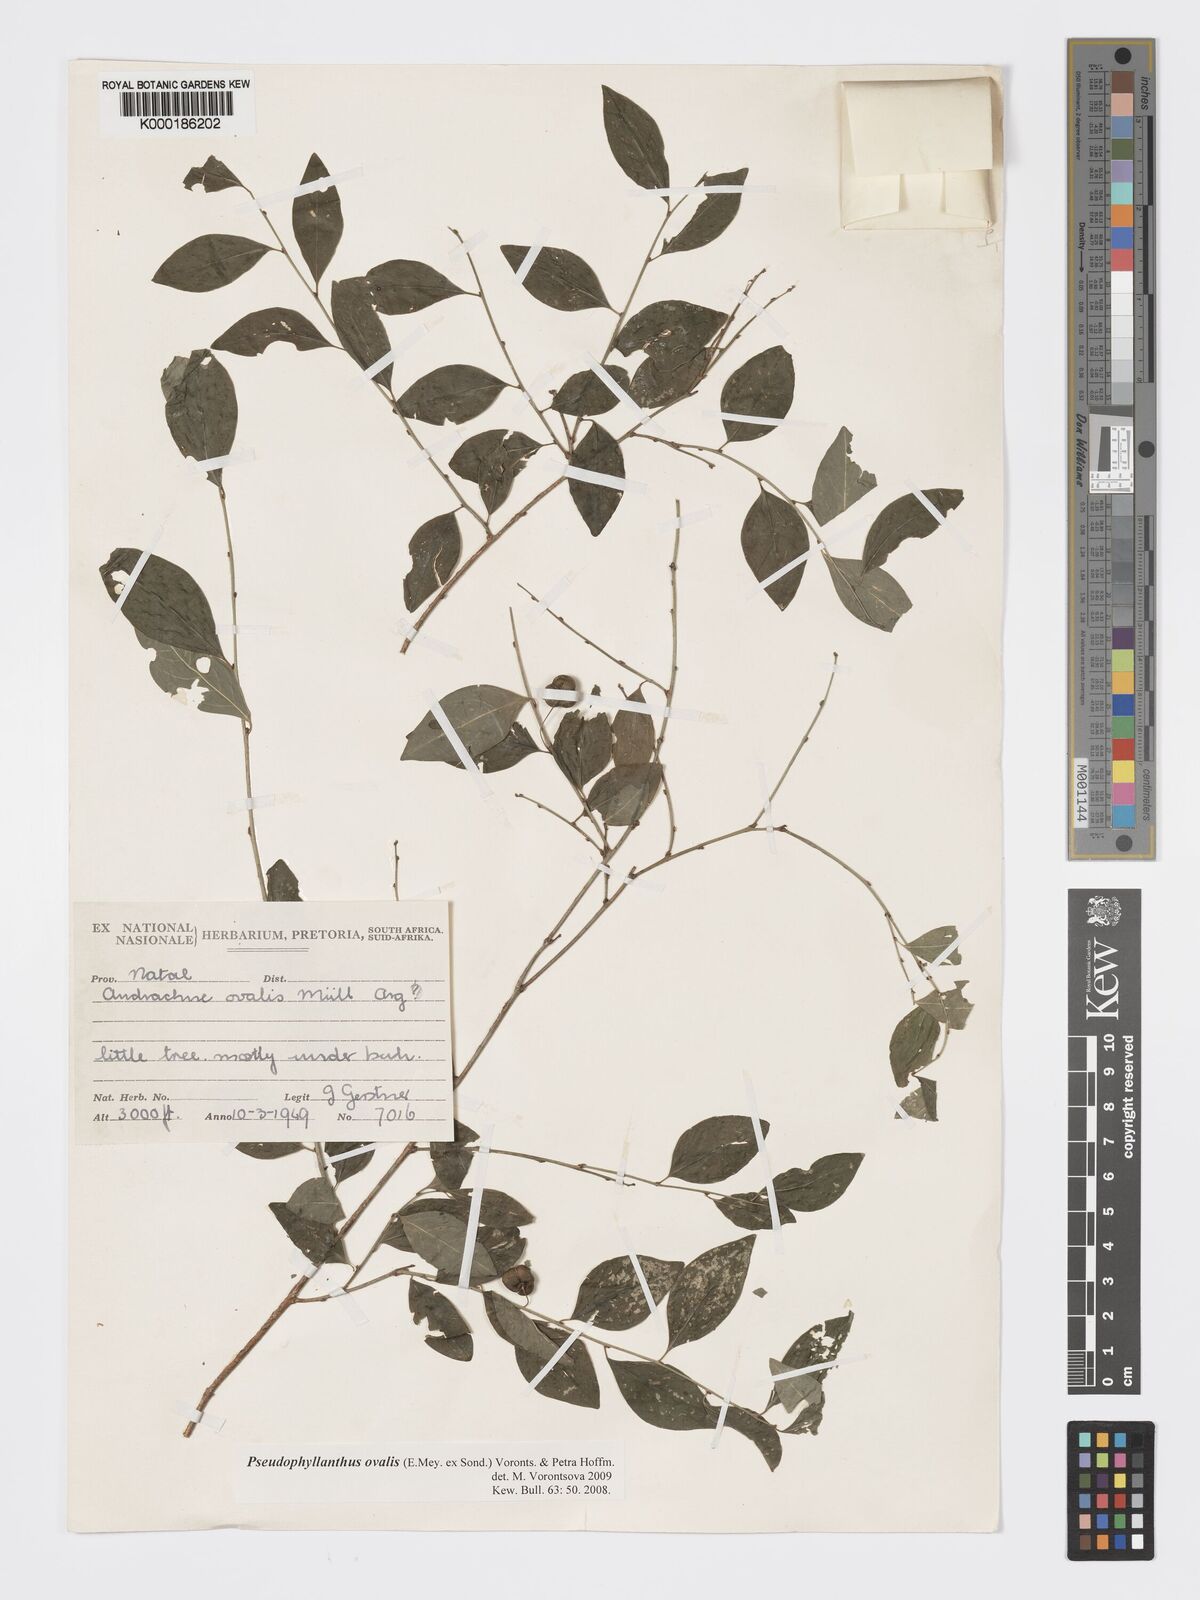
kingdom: Plantae
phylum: Tracheophyta
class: Magnoliopsida
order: Malpighiales
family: Phyllanthaceae
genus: Pseudophyllanthus
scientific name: Pseudophyllanthus ovalis
